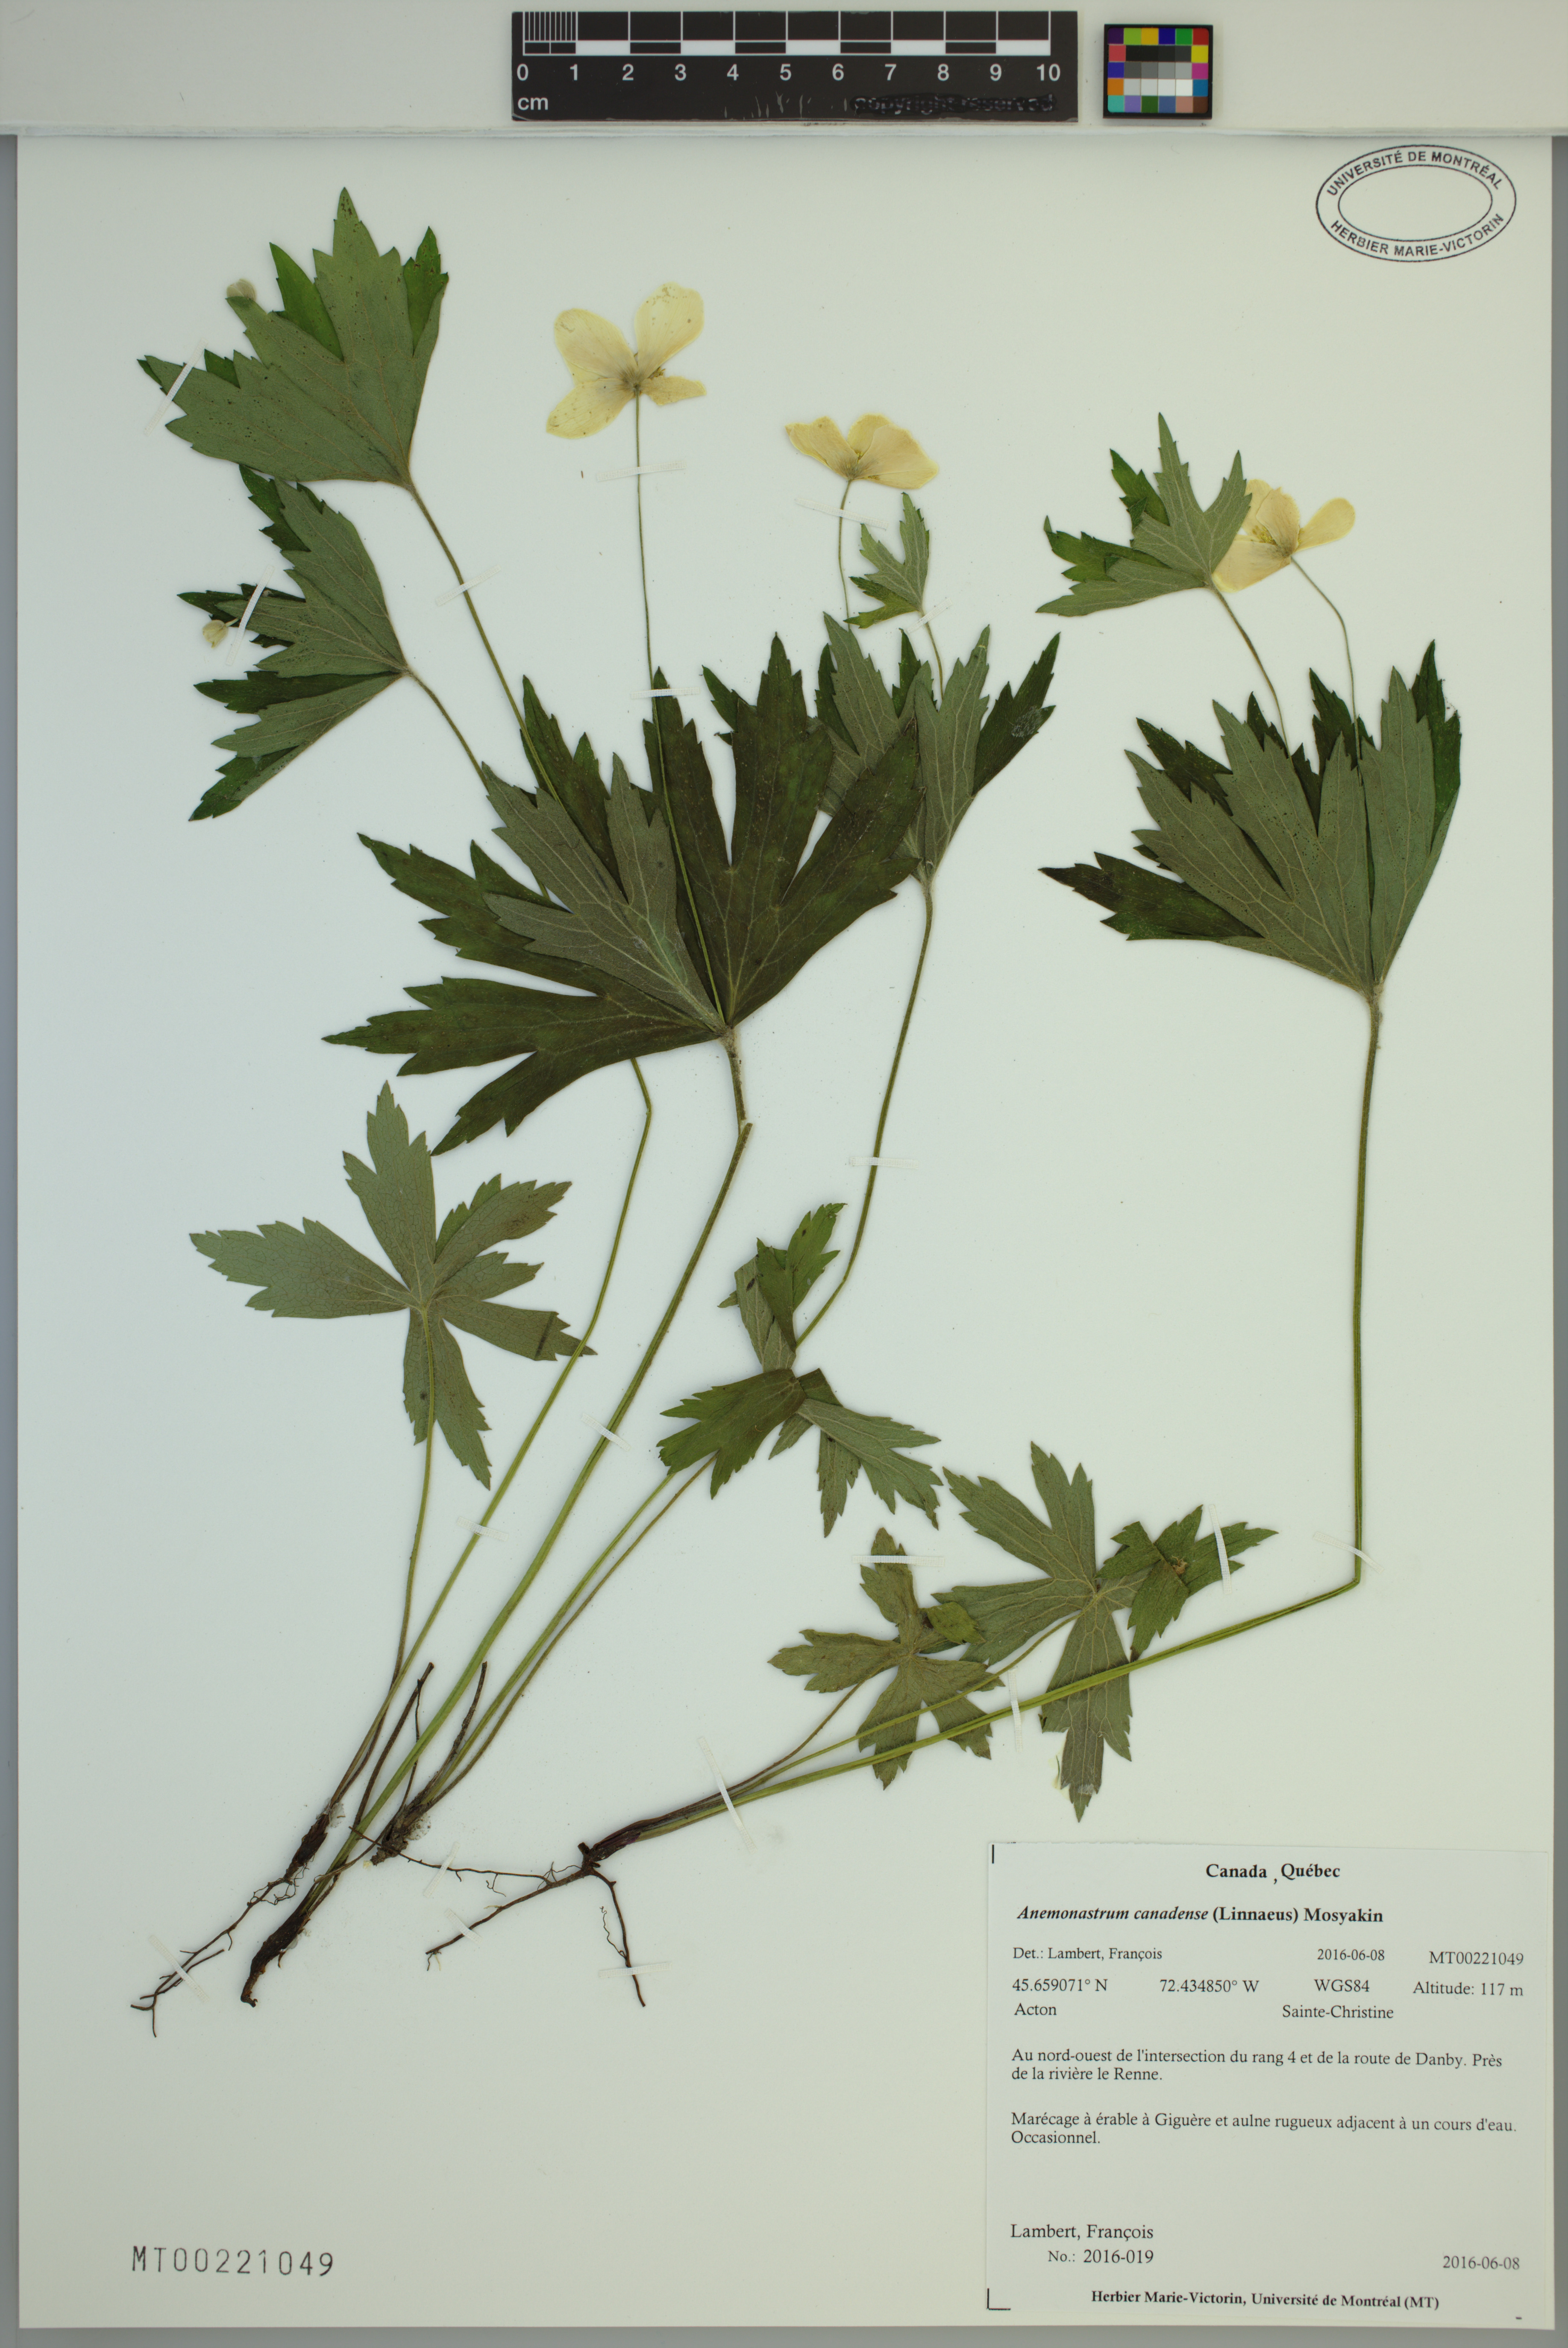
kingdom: Plantae
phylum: Tracheophyta
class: Magnoliopsida
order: Ranunculales
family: Ranunculaceae
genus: Anemonastrum
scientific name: Anemonastrum canadense
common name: Canada anemone
